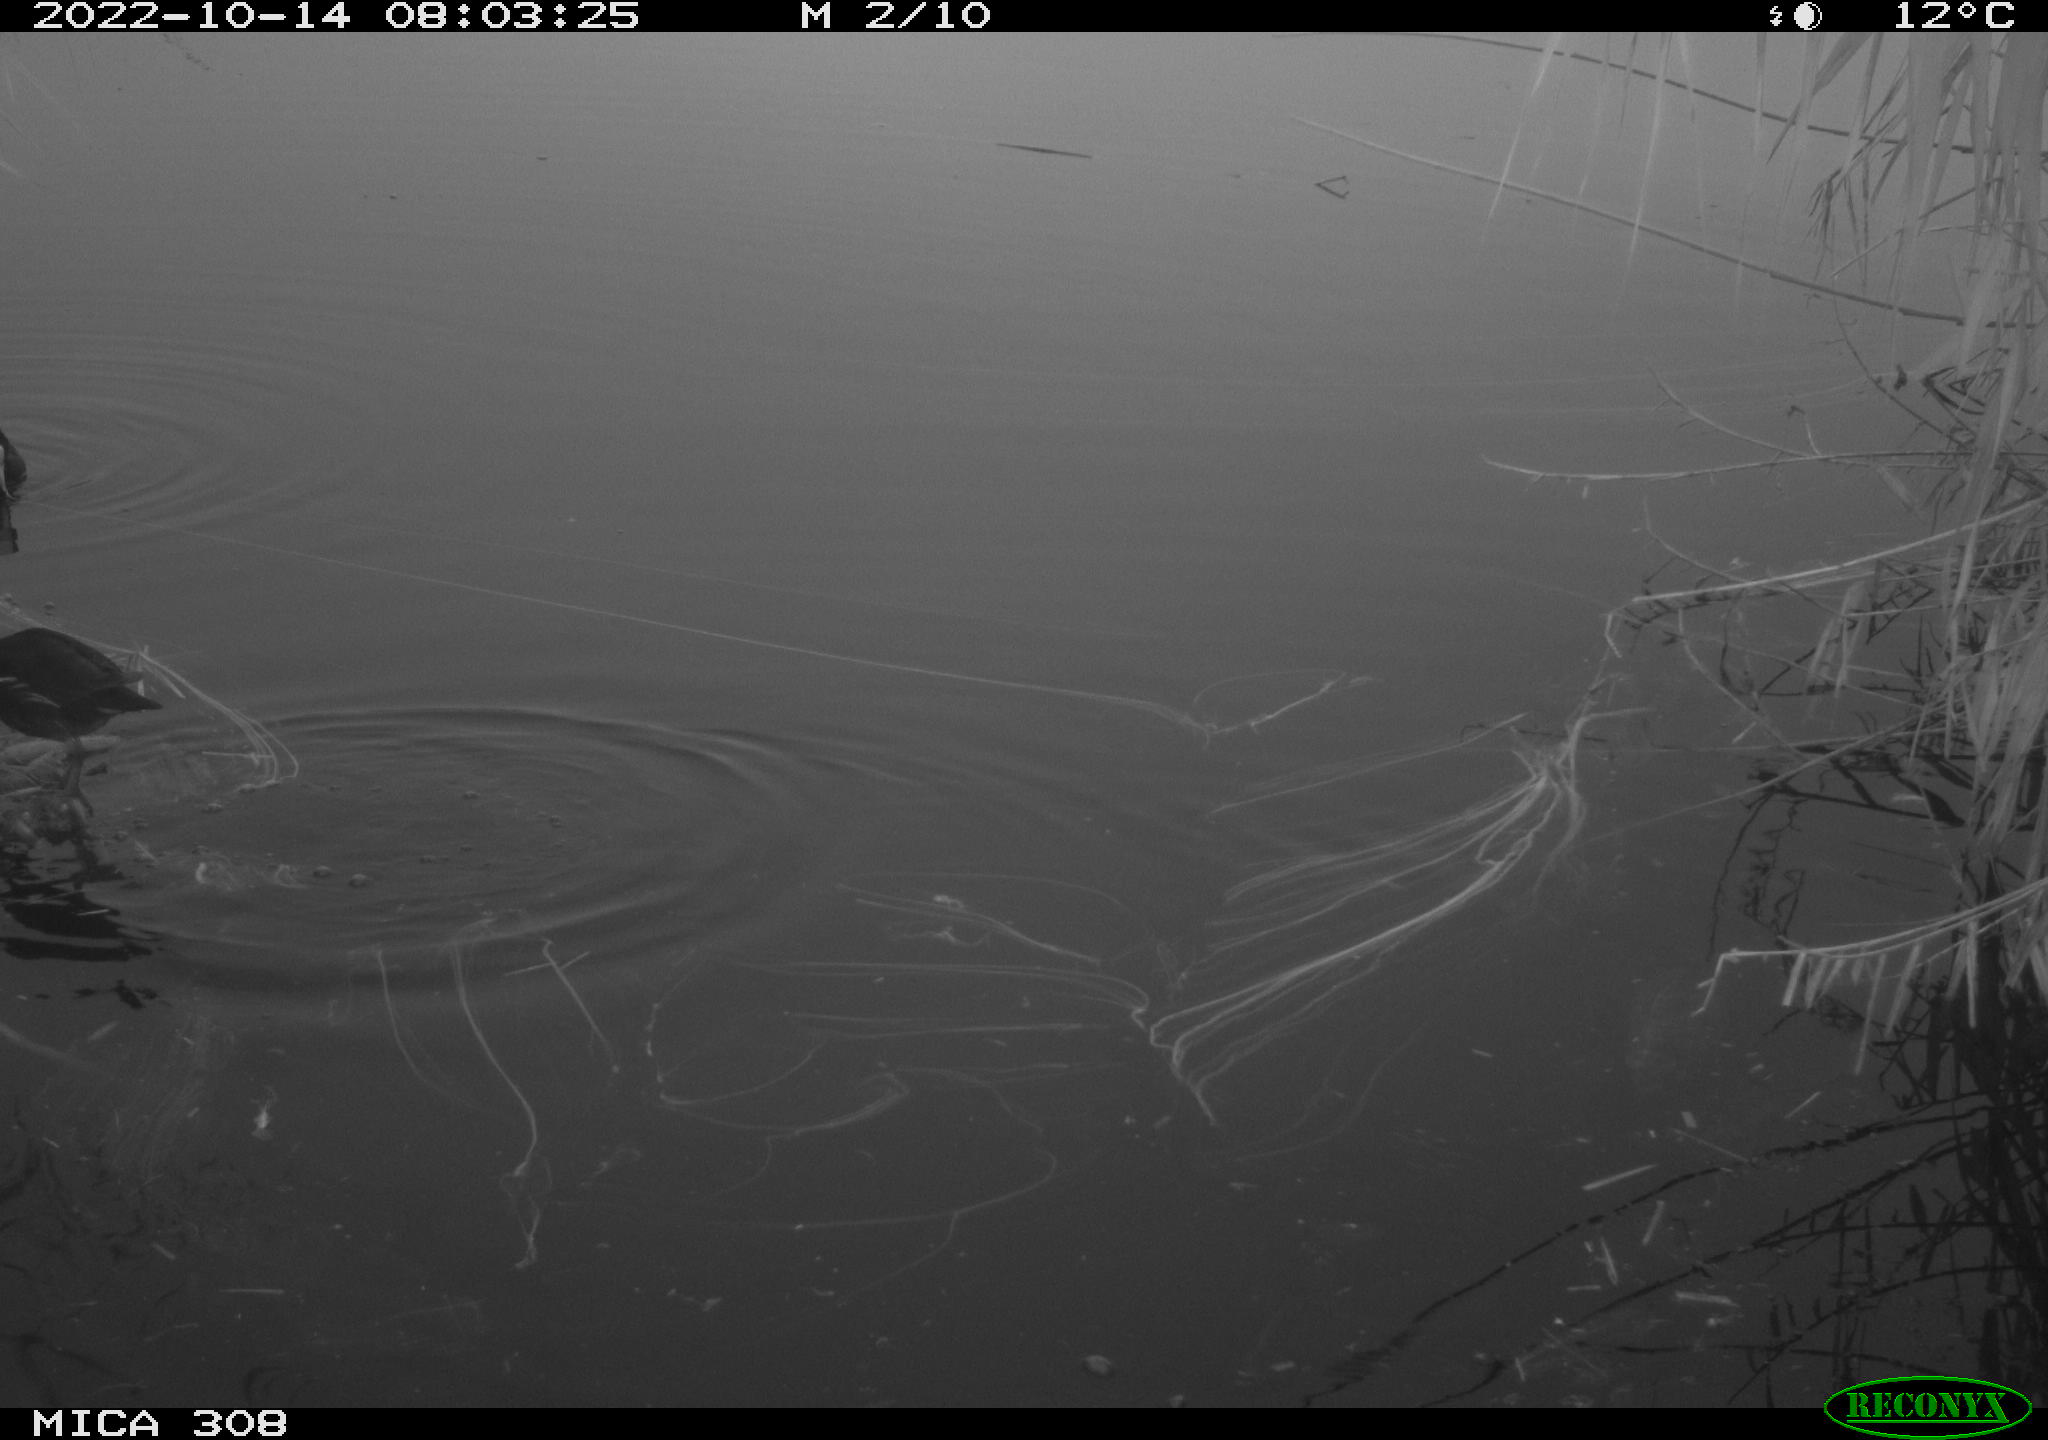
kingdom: Animalia
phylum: Chordata
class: Aves
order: Gruiformes
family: Rallidae
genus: Fulica
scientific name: Fulica atra
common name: Eurasian coot
